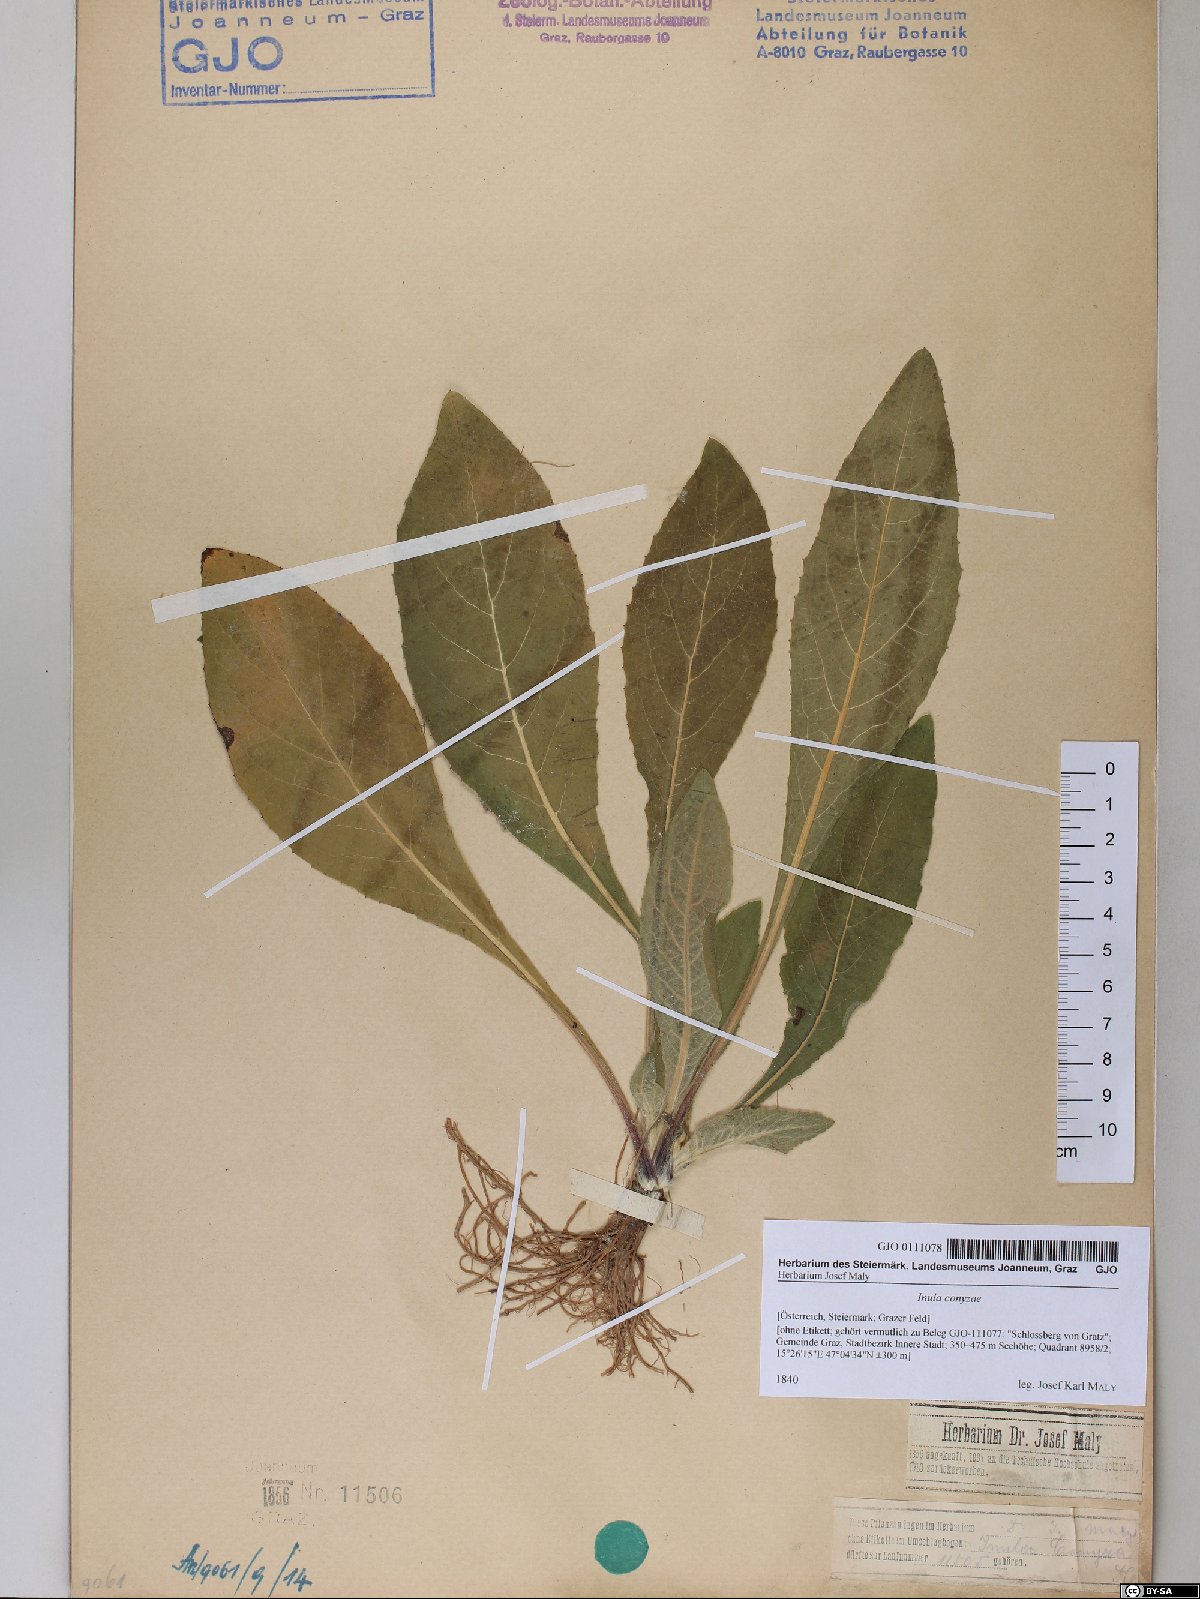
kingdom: Plantae
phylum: Tracheophyta
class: Magnoliopsida
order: Asterales
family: Asteraceae
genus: Pentanema
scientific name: Pentanema squarrosum
